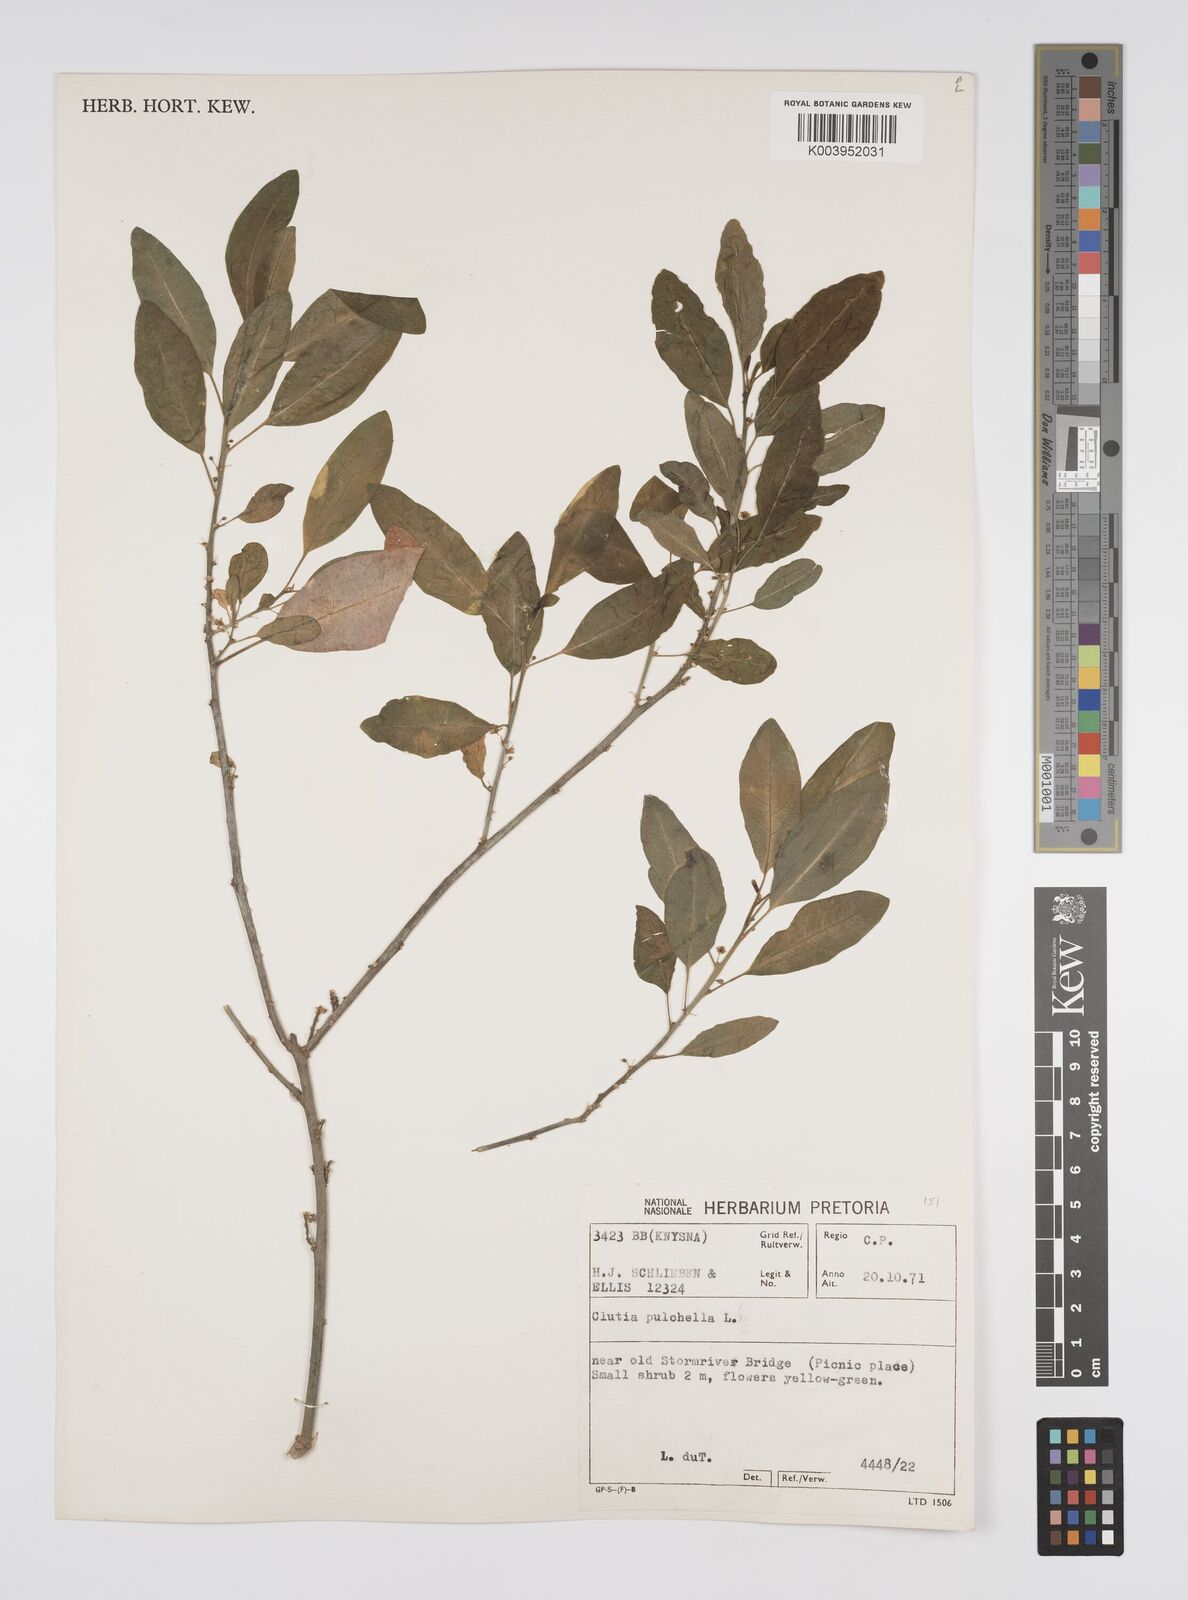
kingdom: Plantae
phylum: Tracheophyta
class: Magnoliopsida
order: Malpighiales
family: Peraceae
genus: Clutia
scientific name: Clutia pulchella
